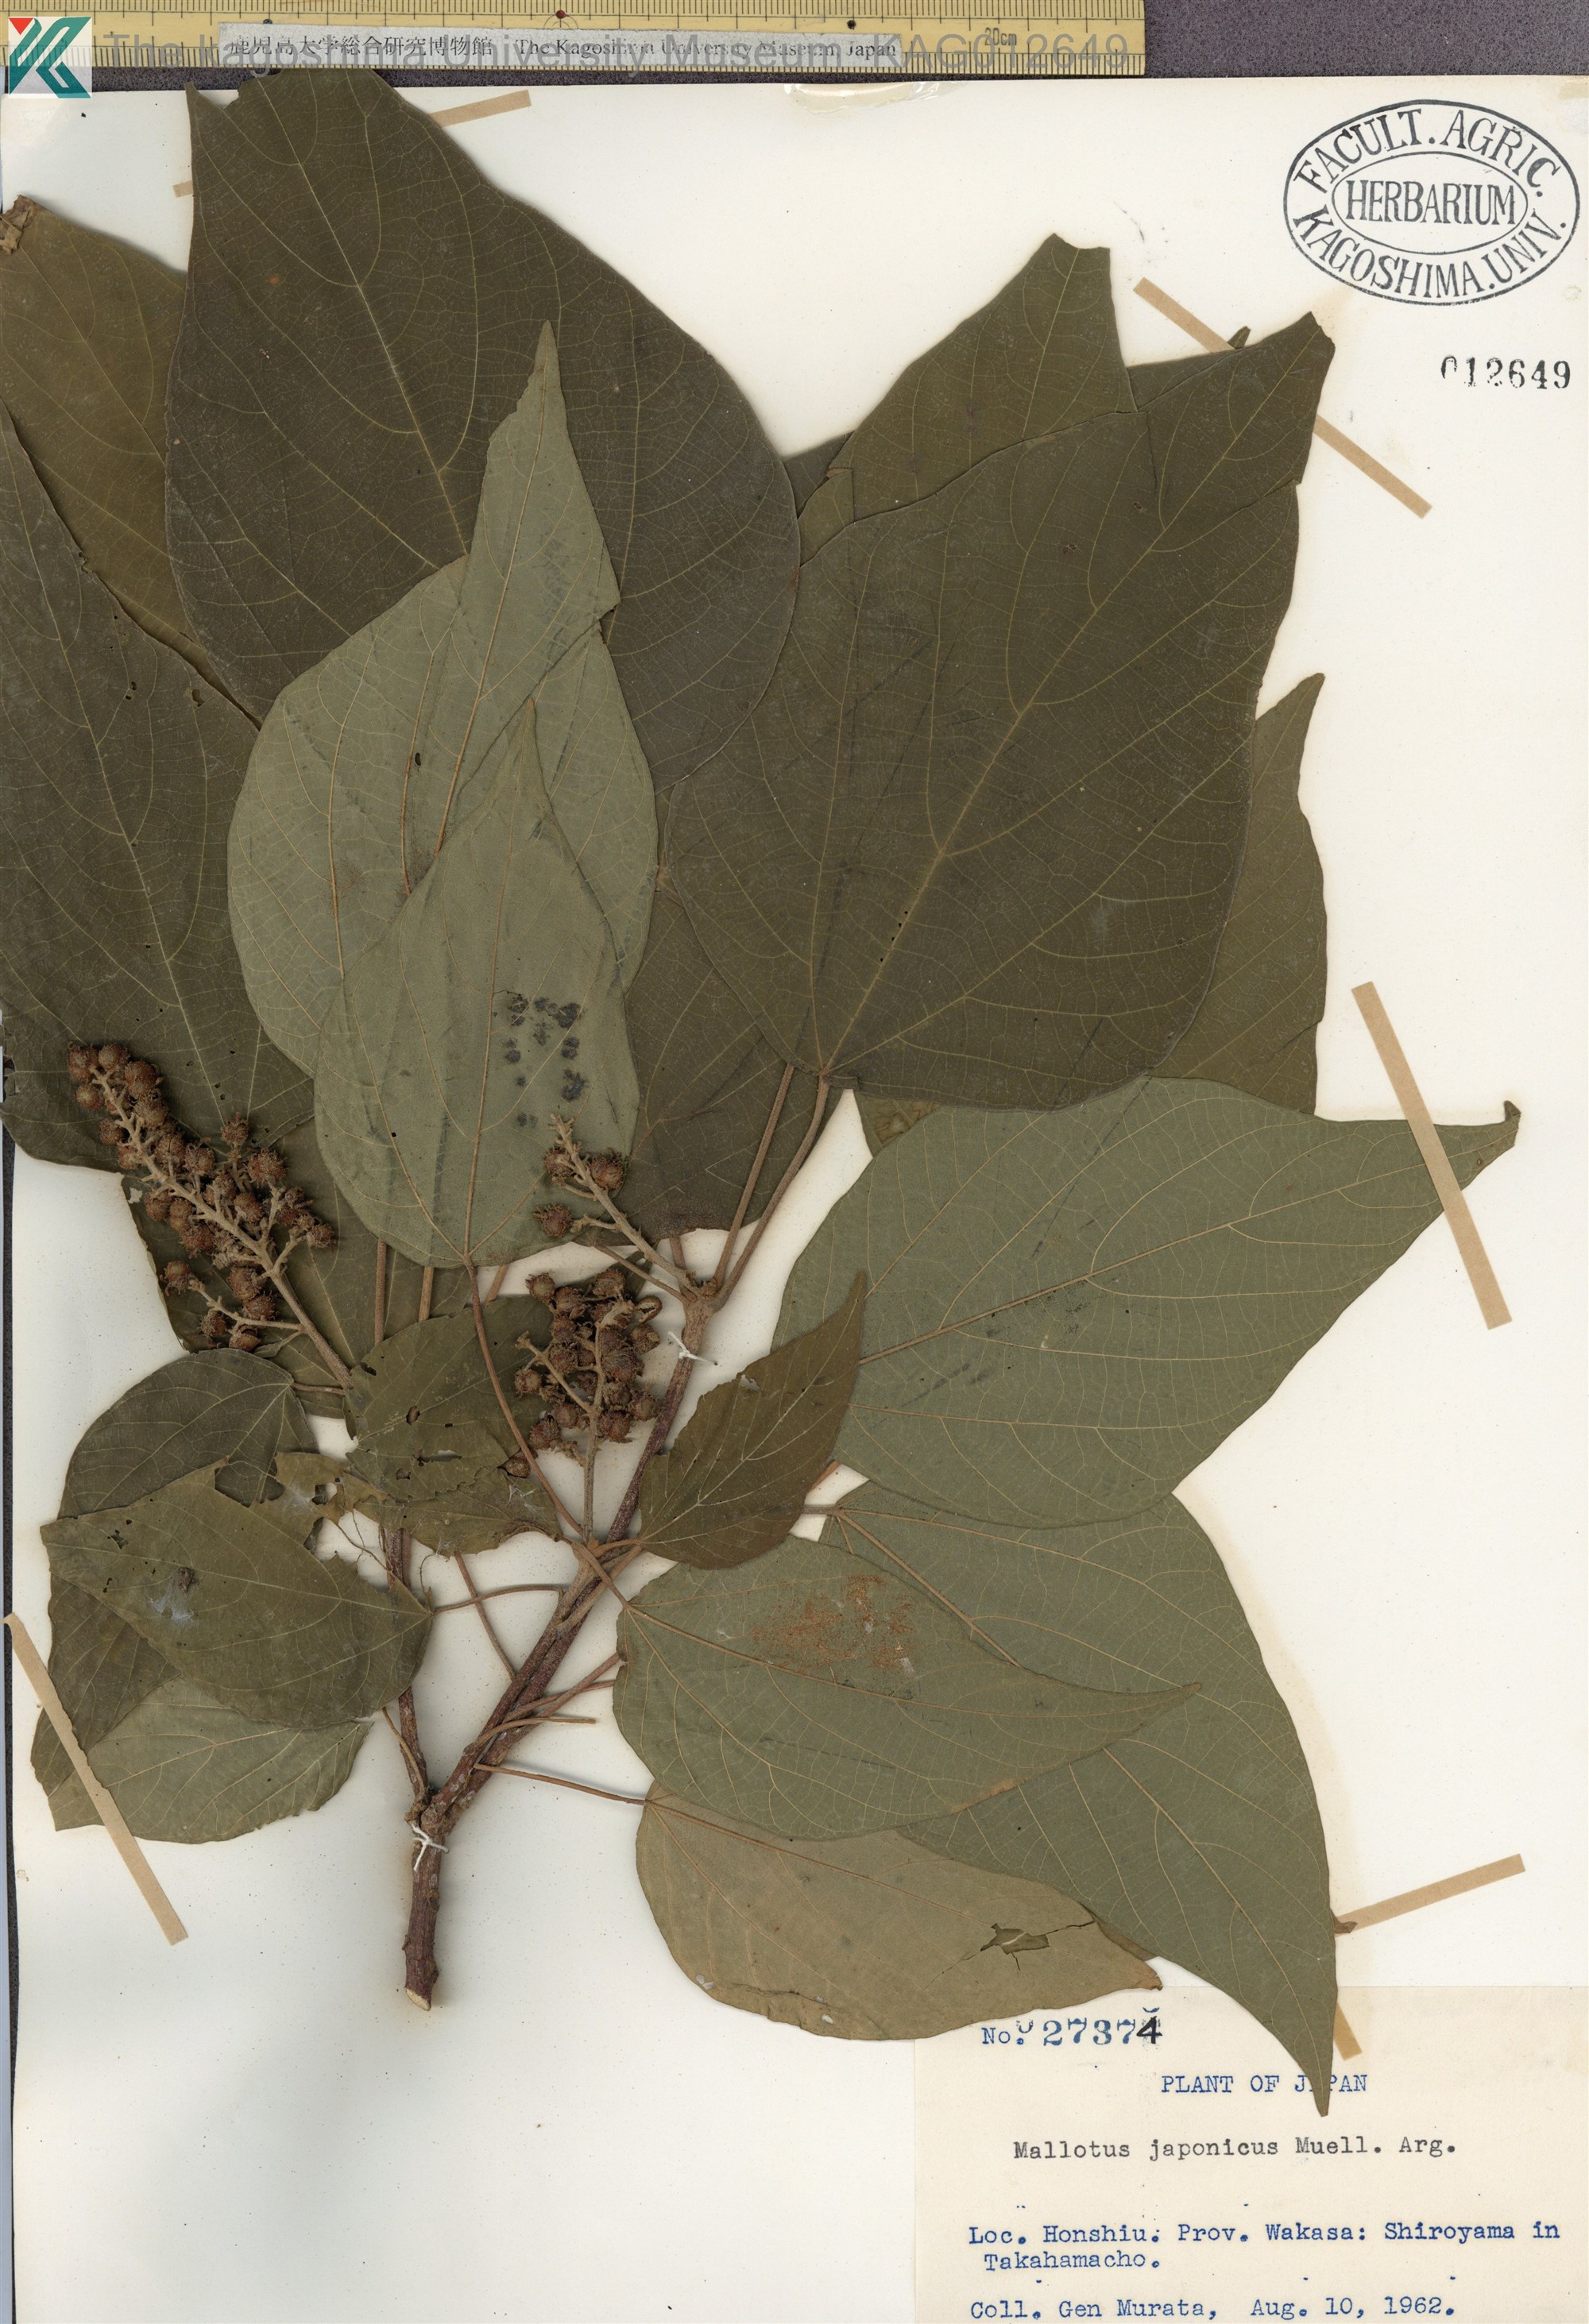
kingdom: Plantae
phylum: Tracheophyta
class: Magnoliopsida
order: Malpighiales
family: Euphorbiaceae
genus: Mallotus
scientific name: Mallotus japonicus
